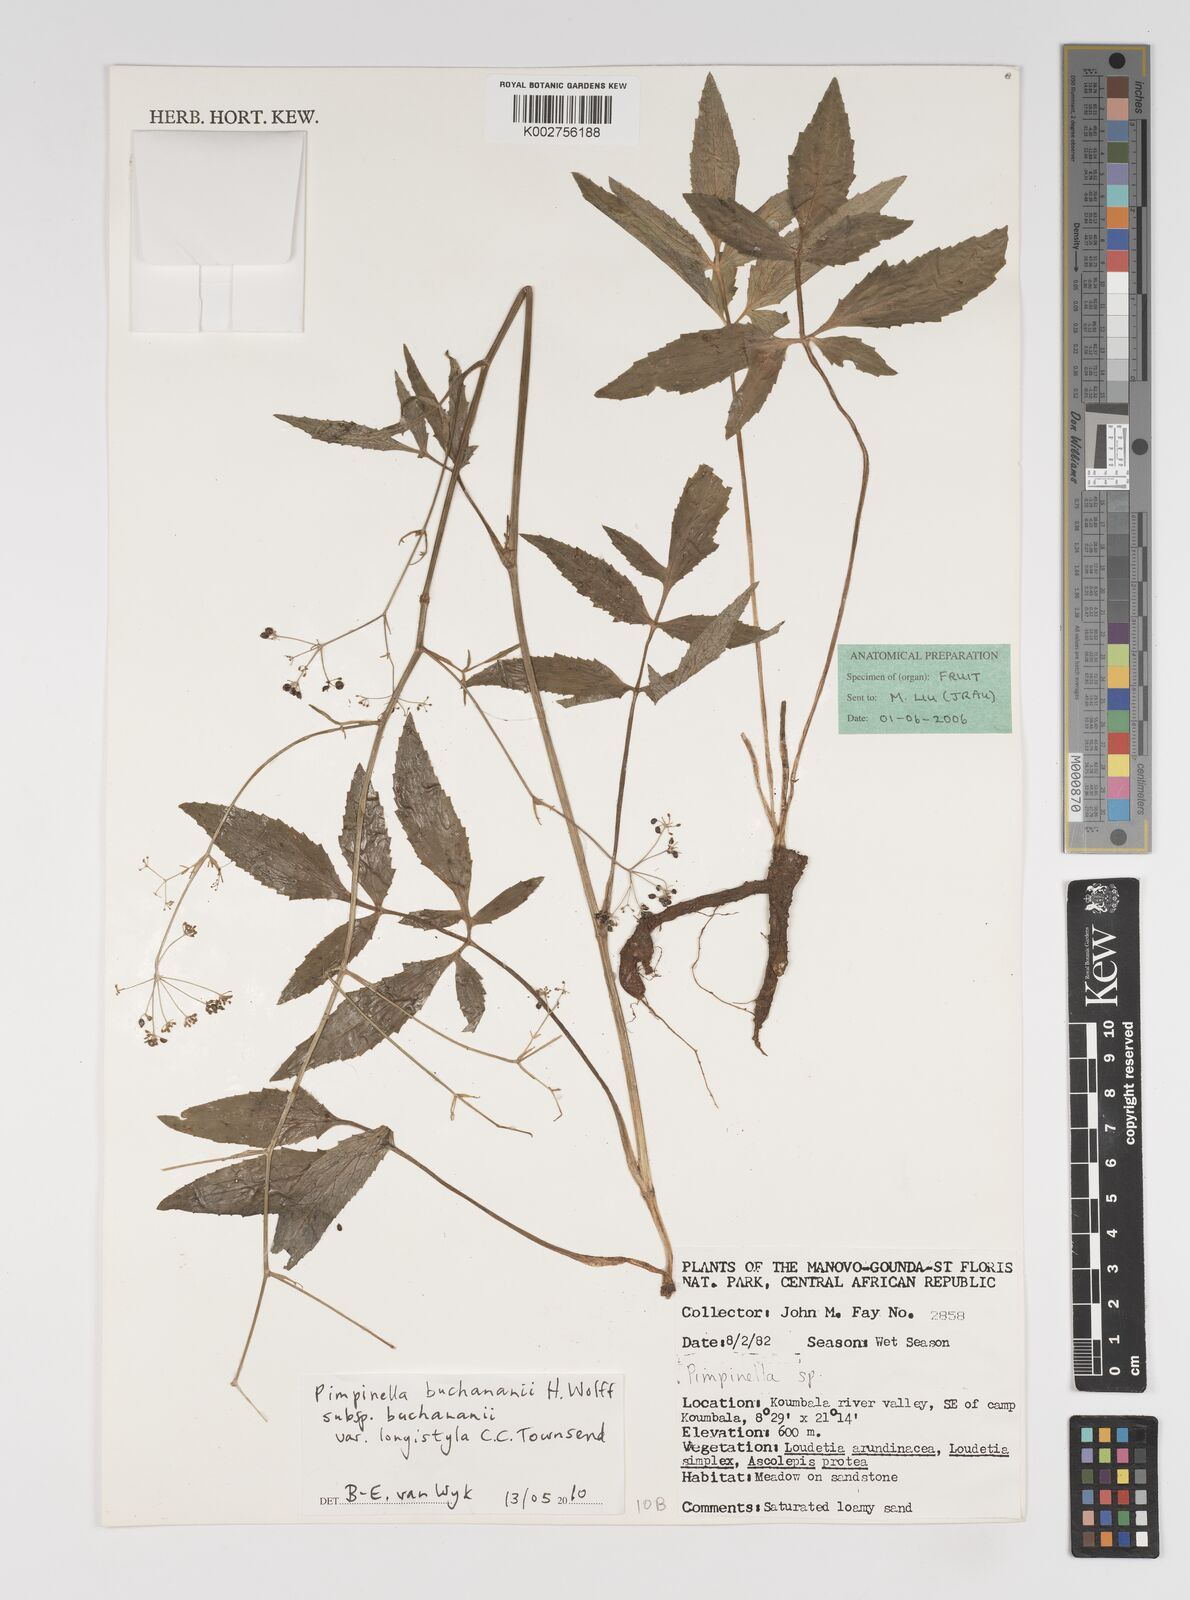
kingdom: Plantae
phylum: Tracheophyta
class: Magnoliopsida
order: Apiales
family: Apiaceae
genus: Pimpinella
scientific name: Pimpinella buchananii
